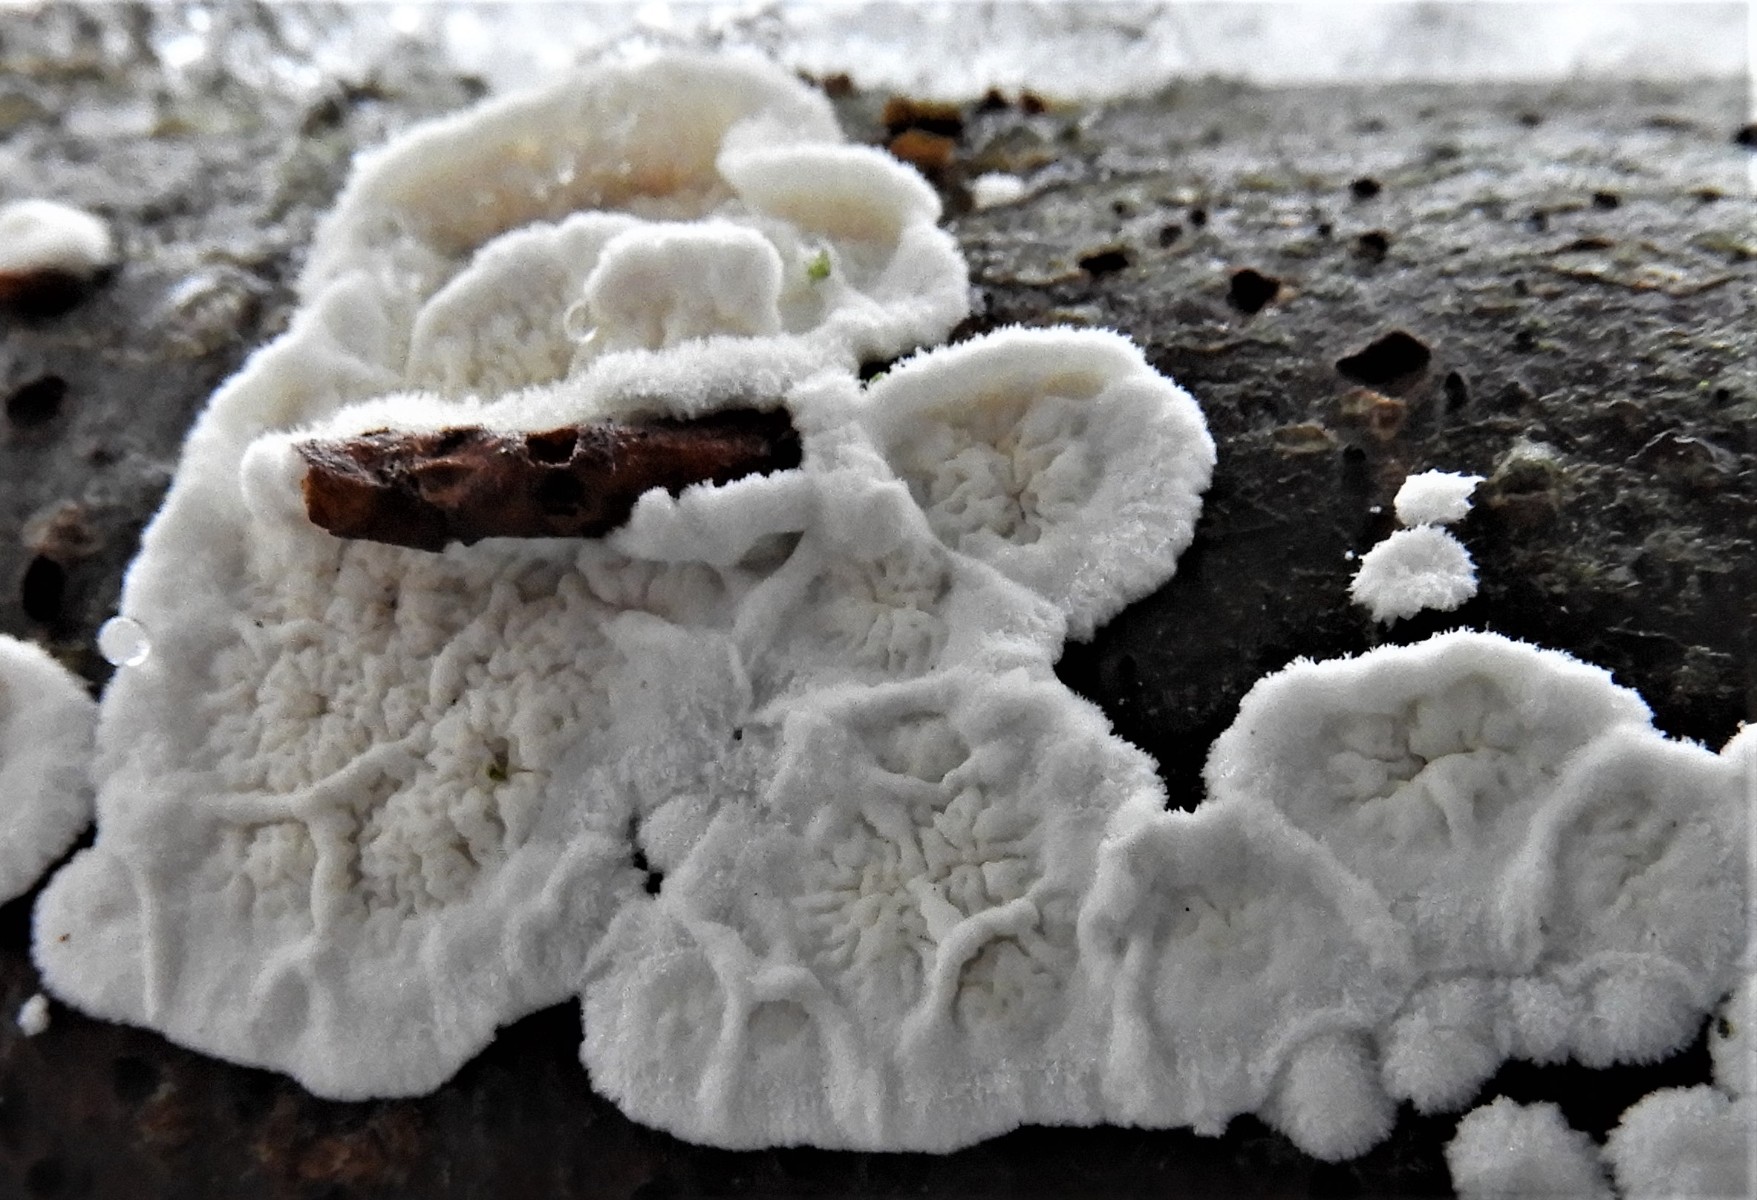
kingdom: Fungi
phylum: Basidiomycota
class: Agaricomycetes
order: Polyporales
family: Irpicaceae
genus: Byssomerulius
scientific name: Byssomerulius corium
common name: læder-åresvamp
